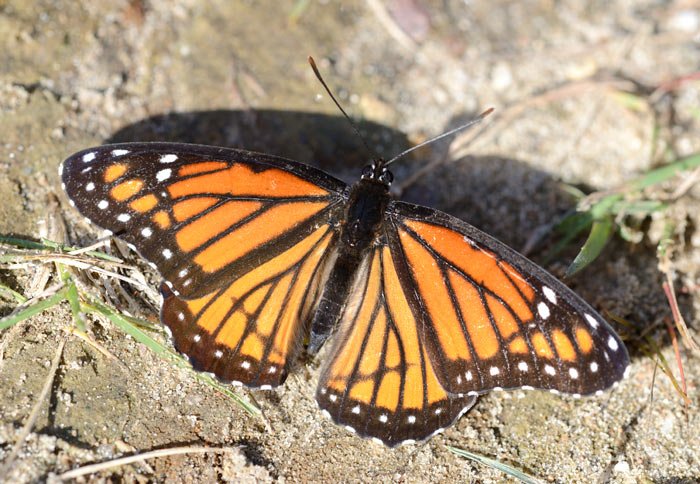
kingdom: Animalia
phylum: Arthropoda
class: Insecta
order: Lepidoptera
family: Nymphalidae
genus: Limenitis
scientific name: Limenitis archippus
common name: Viceroy
